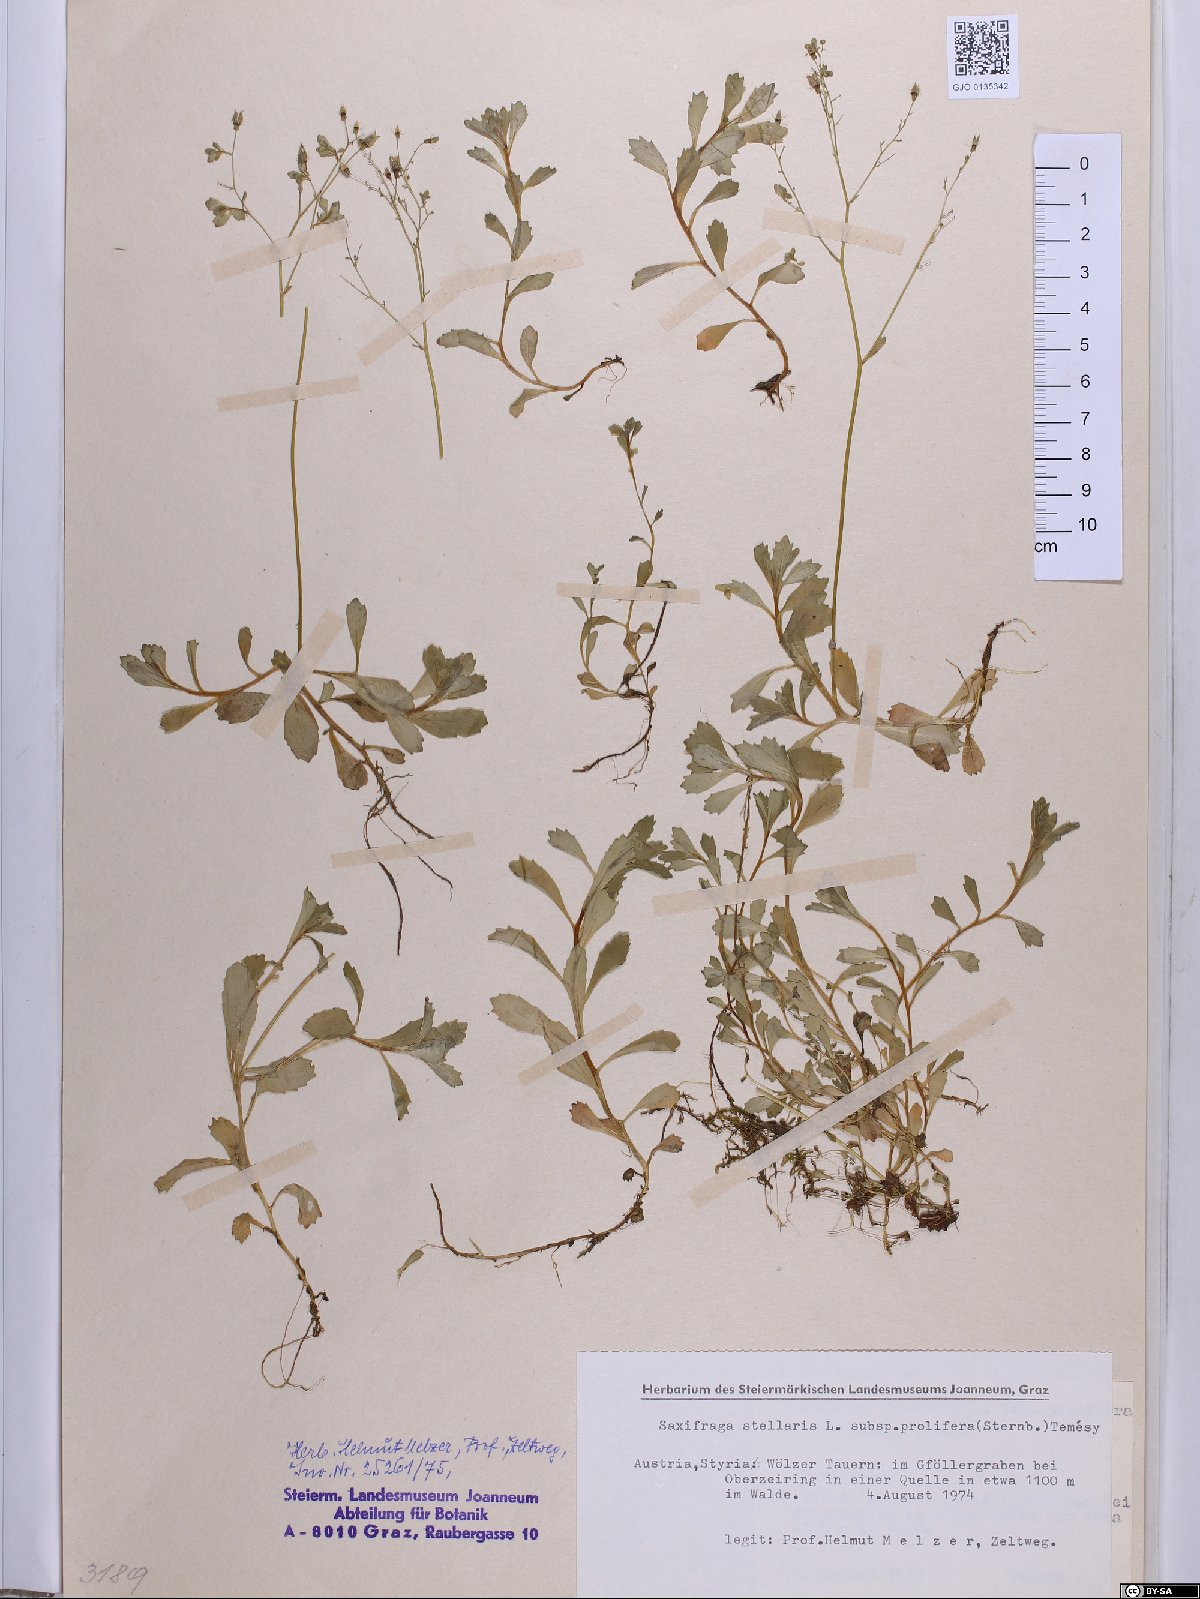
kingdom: Plantae
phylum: Tracheophyta
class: Magnoliopsida
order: Saxifragales
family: Saxifragaceae
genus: Micranthes
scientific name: Micranthes stellaris
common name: Starry saxifrage
